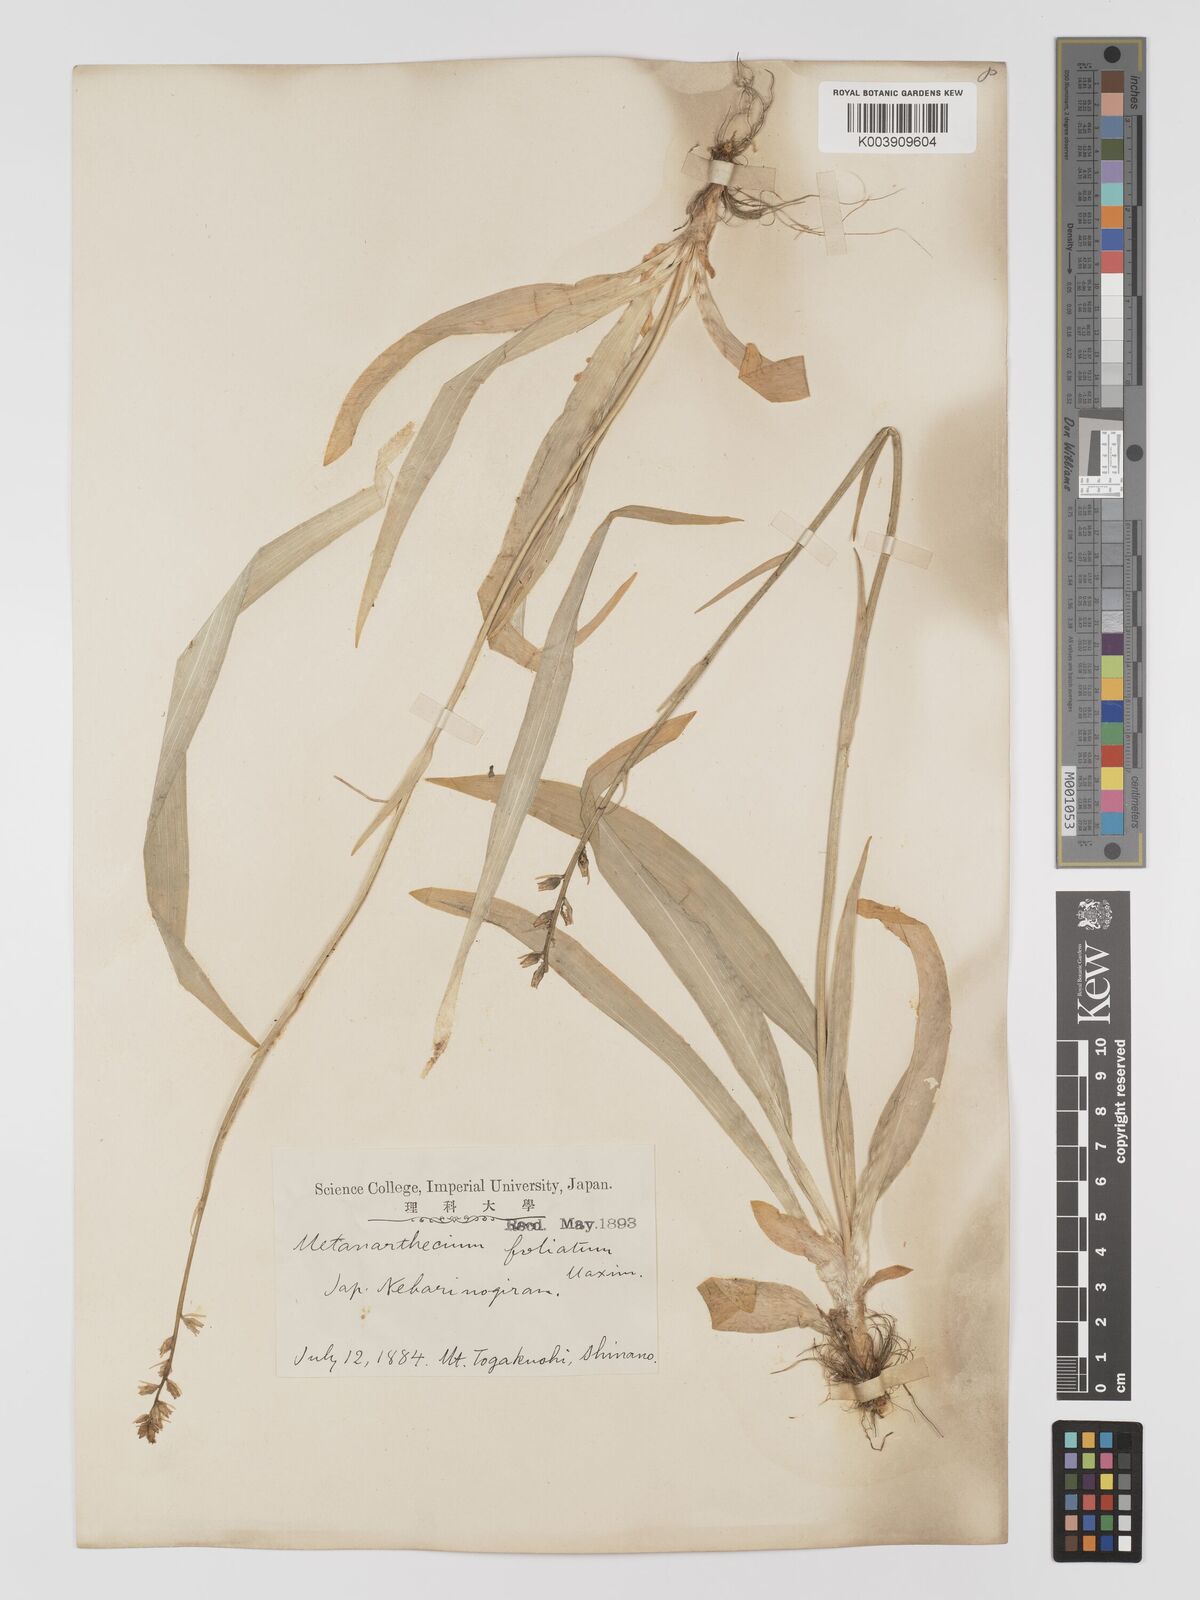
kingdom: Plantae
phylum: Tracheophyta
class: Liliopsida
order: Dioscoreales
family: Nartheciaceae
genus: Aletris
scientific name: Aletris foliata
